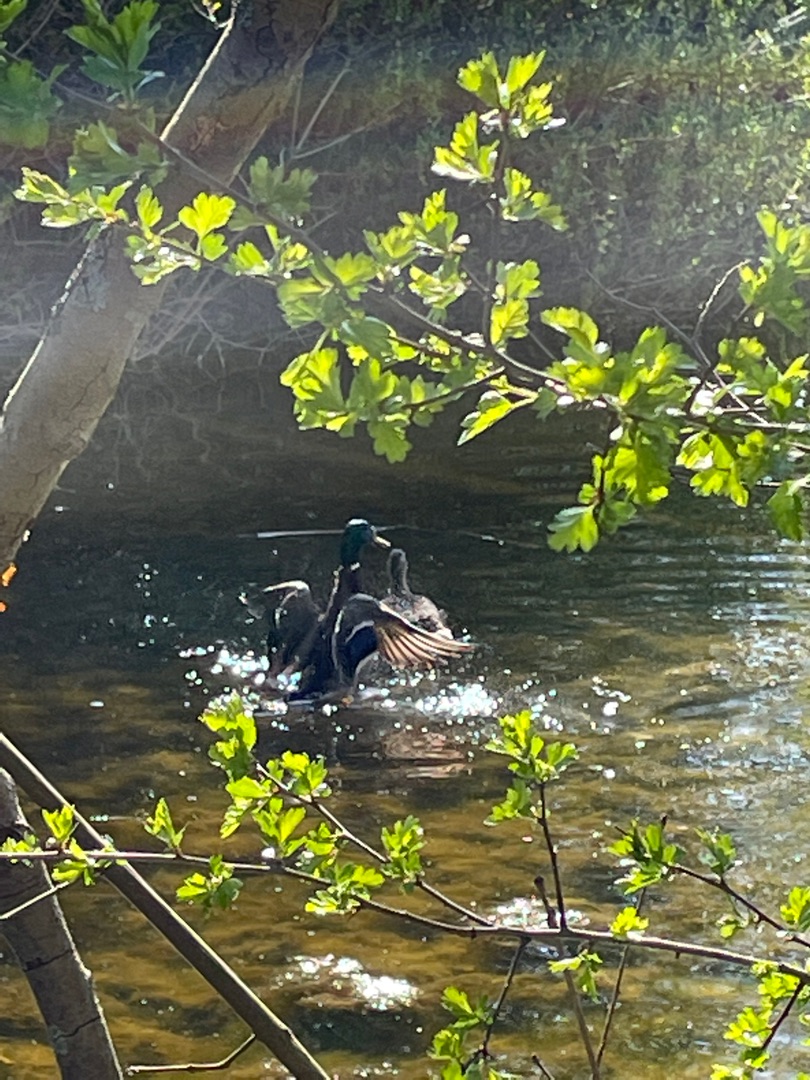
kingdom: Animalia
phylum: Chordata
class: Aves
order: Anseriformes
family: Anatidae
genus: Anas
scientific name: Anas platyrhynchos
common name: Gråand
